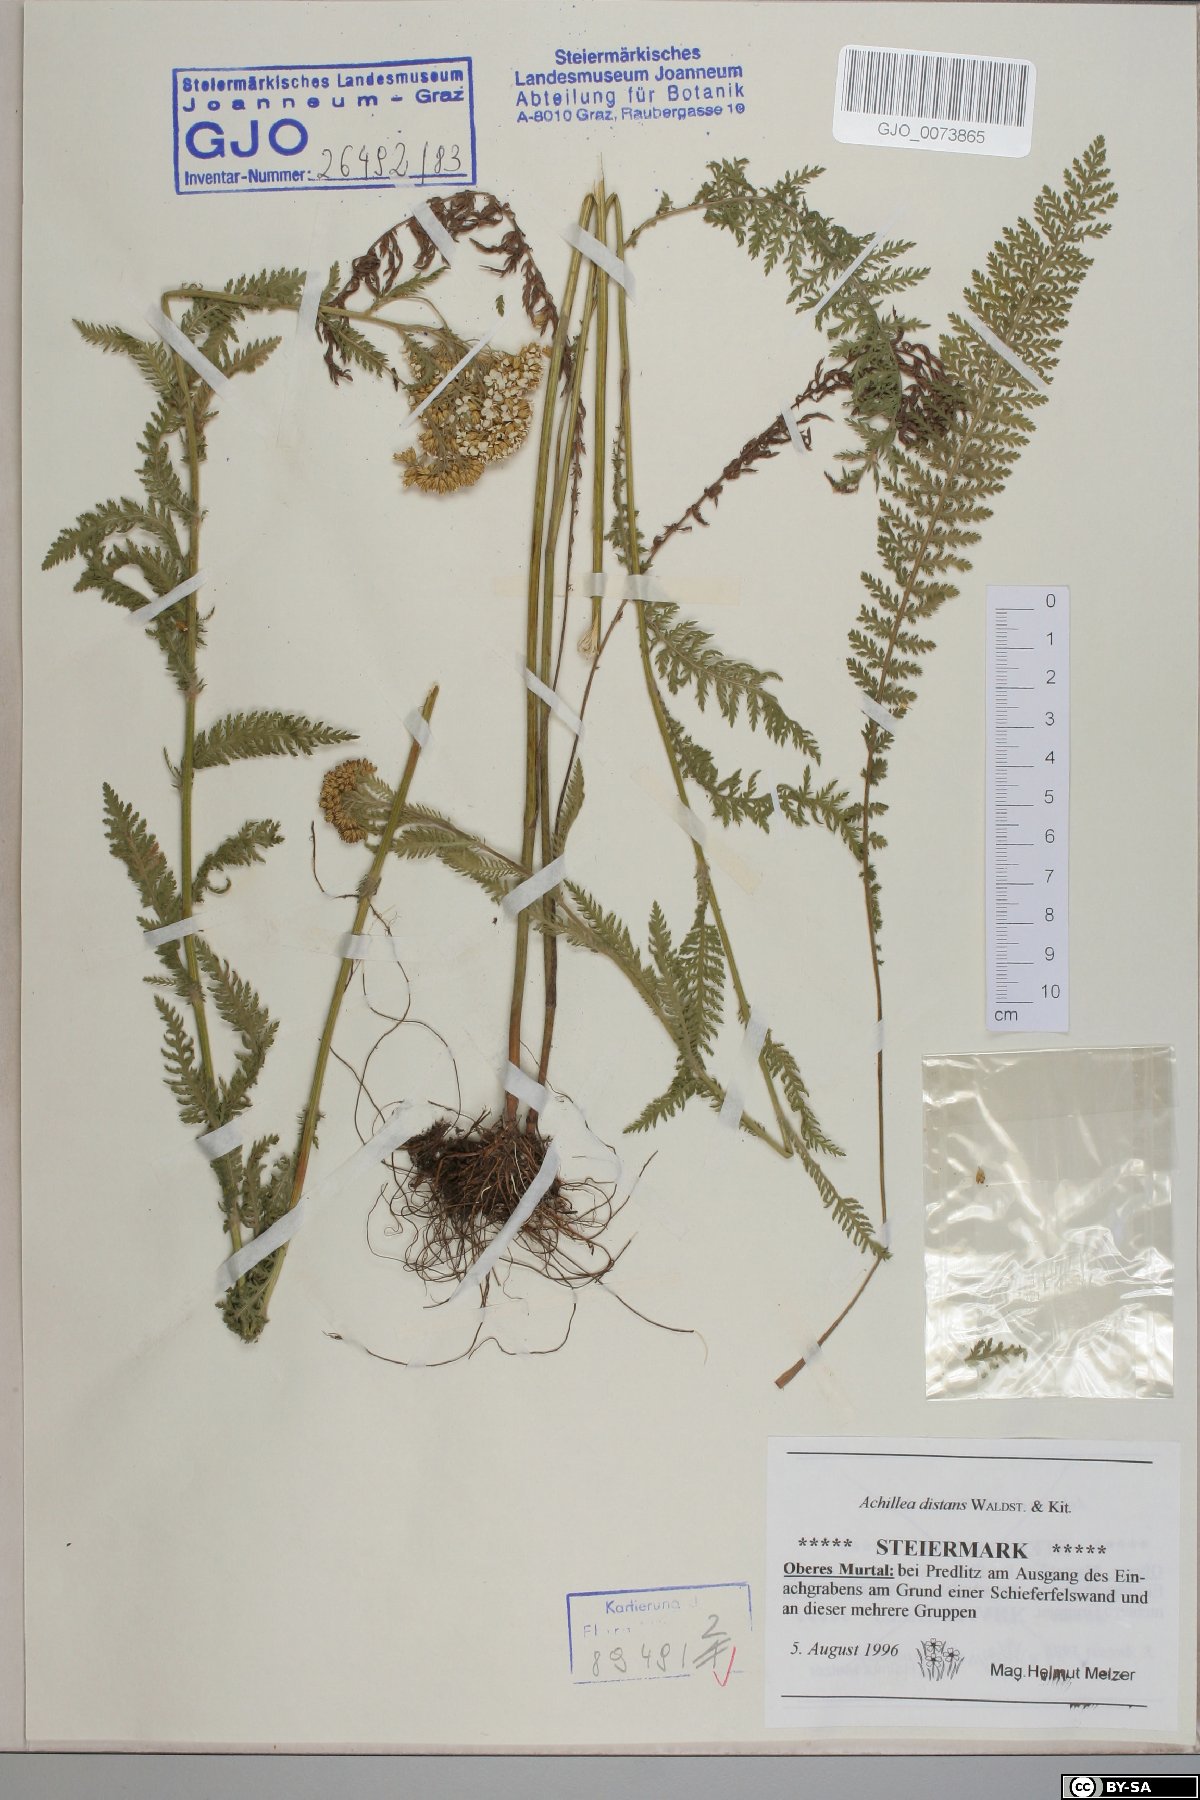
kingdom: Plantae
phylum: Tracheophyta
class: Magnoliopsida
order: Asterales
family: Asteraceae
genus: Achillea
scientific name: Achillea distans
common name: Tall yarrow
